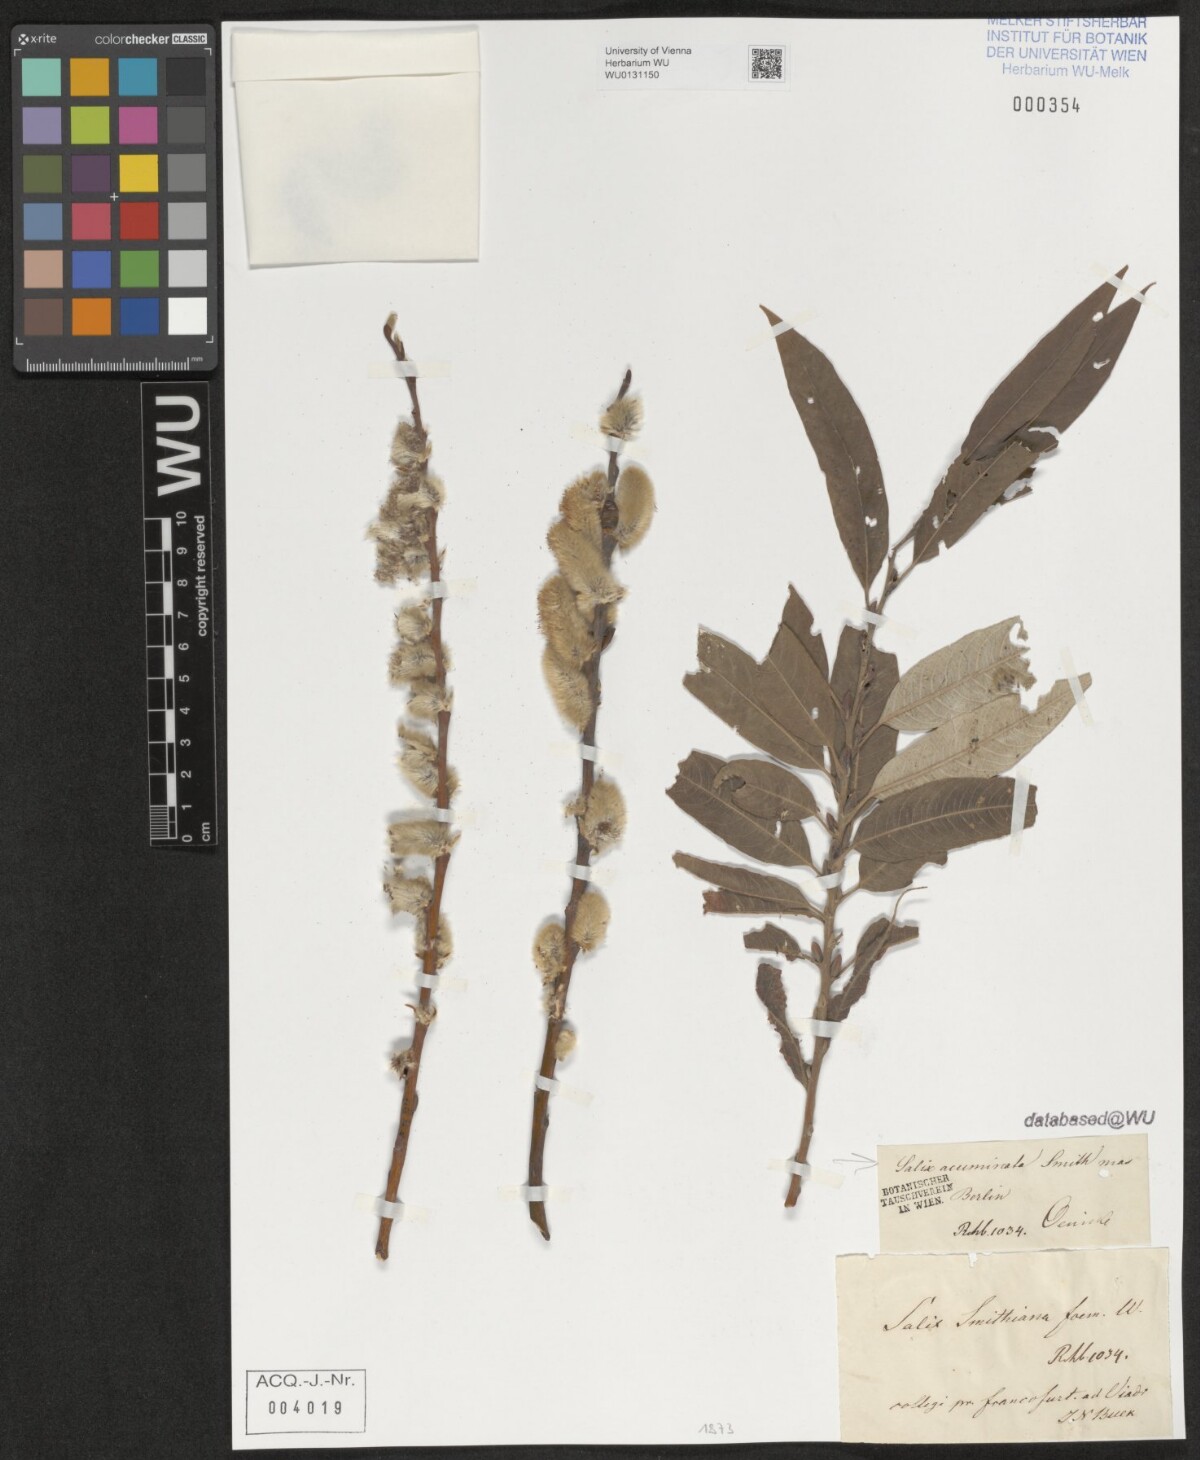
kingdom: Plantae
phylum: Tracheophyta
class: Magnoliopsida
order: Malpighiales
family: Salicaceae
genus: Salix
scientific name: Salix cinerea
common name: Common sallow
